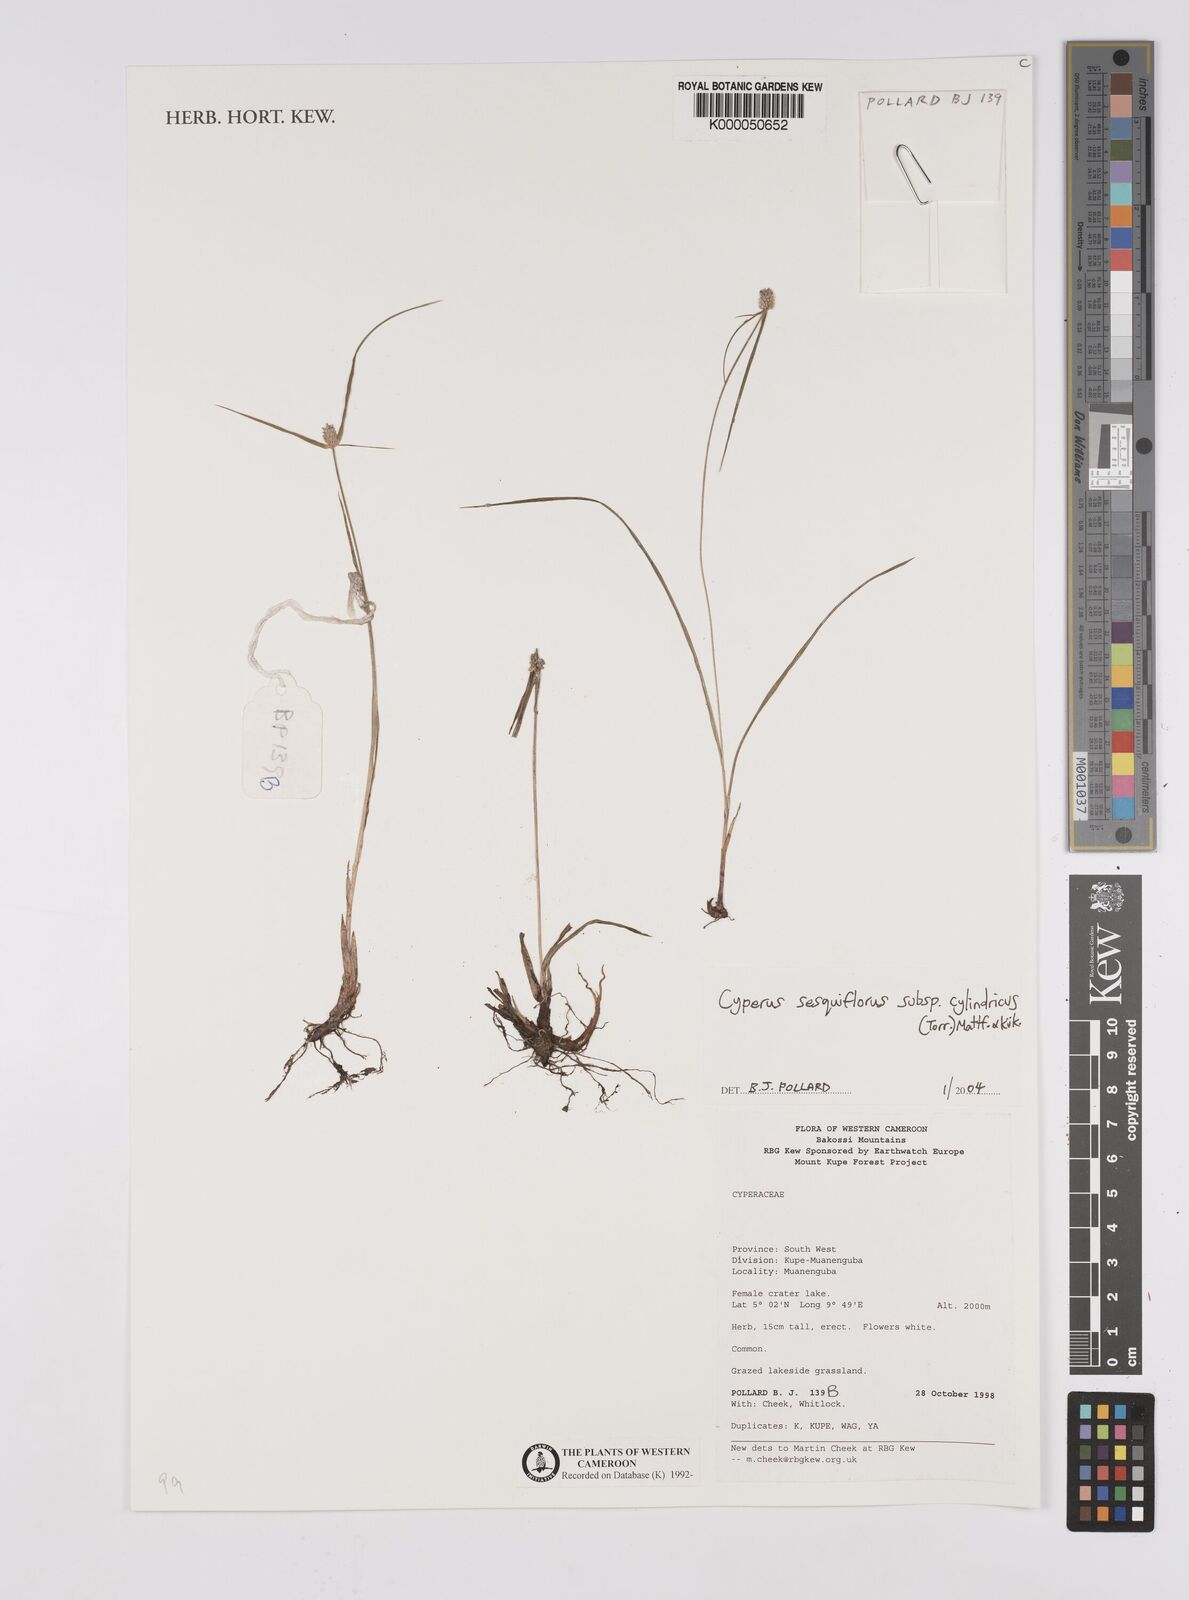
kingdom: Plantae
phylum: Tracheophyta
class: Liliopsida
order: Poales
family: Cyperaceae
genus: Cyperus
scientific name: Cyperus
